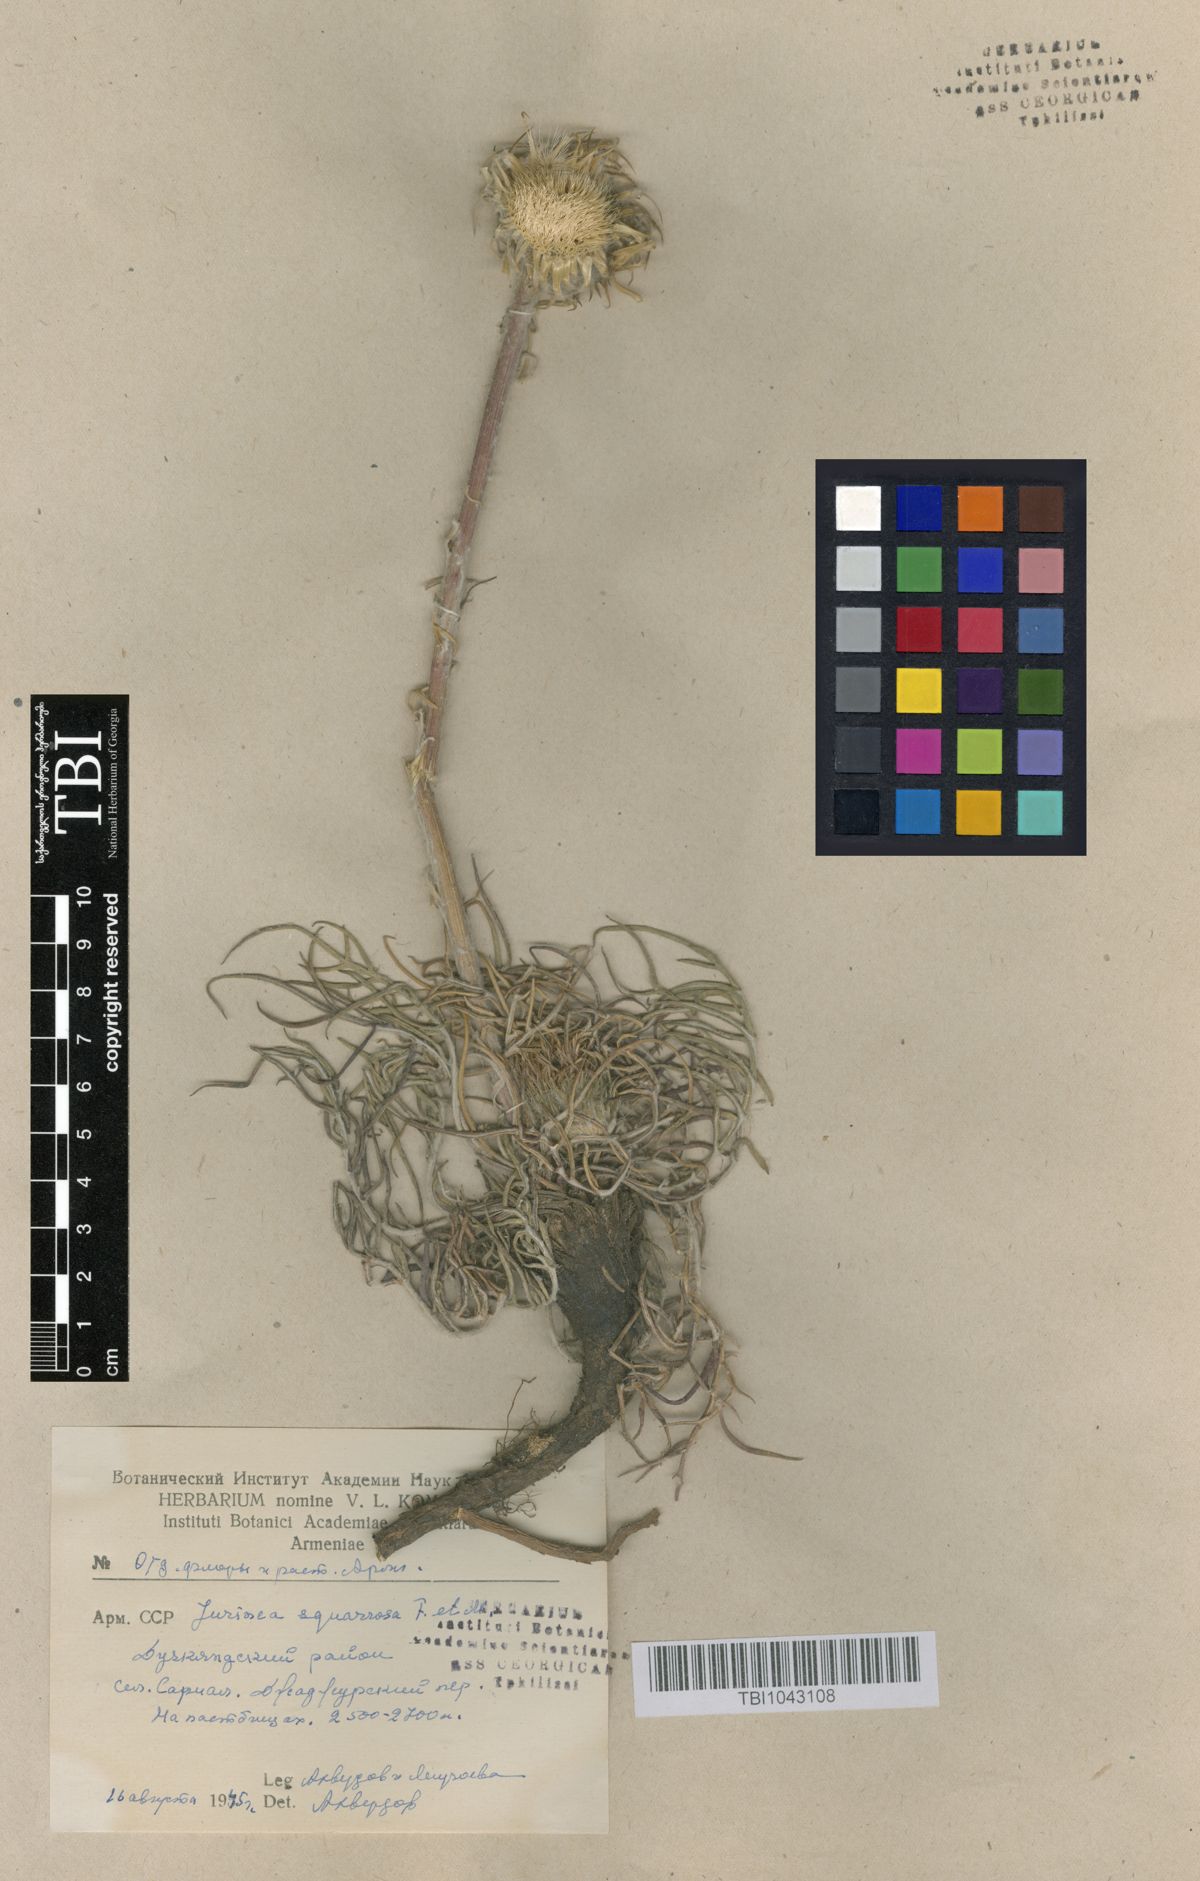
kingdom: Plantae
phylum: Tracheophyta
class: Magnoliopsida
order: Asterales
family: Asteraceae
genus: Jurinea
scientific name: Jurinea squarrosa
